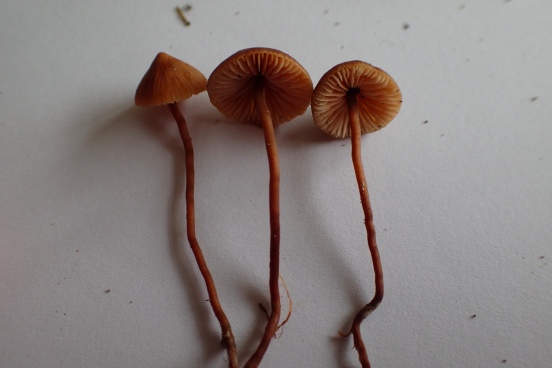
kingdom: Fungi
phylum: Basidiomycota
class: Agaricomycetes
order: Agaricales
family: Macrocystidiaceae
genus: Macrocystidia
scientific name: Macrocystidia cucumis
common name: Cucumber cap
